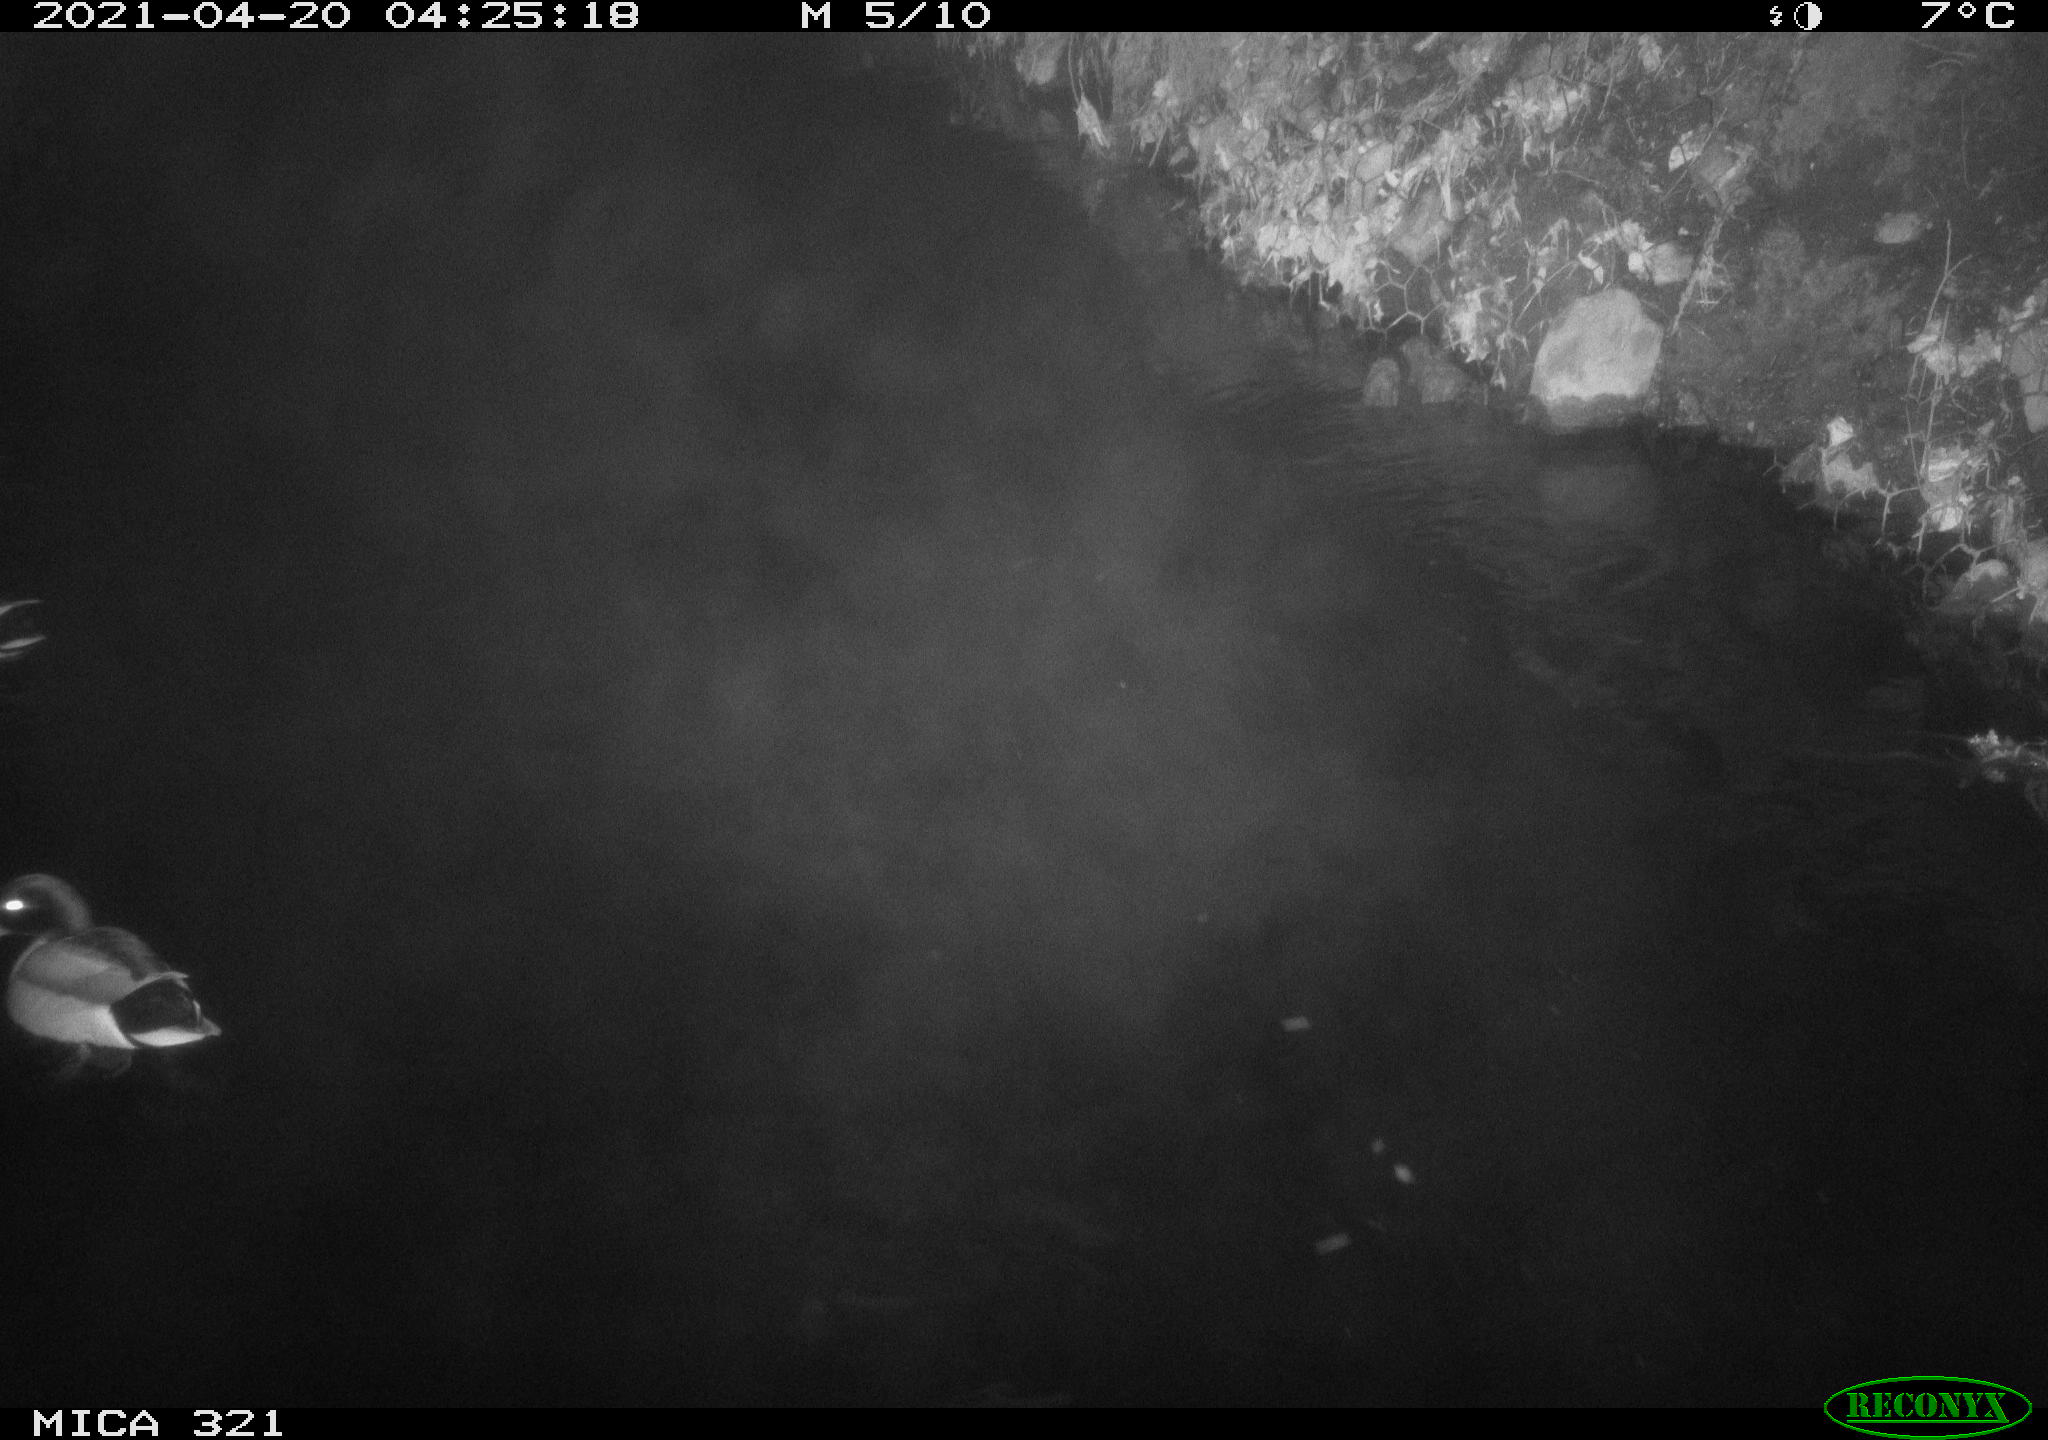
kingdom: Animalia
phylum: Chordata
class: Aves
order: Anseriformes
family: Anatidae
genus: Anas
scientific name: Anas platyrhynchos
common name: Mallard
